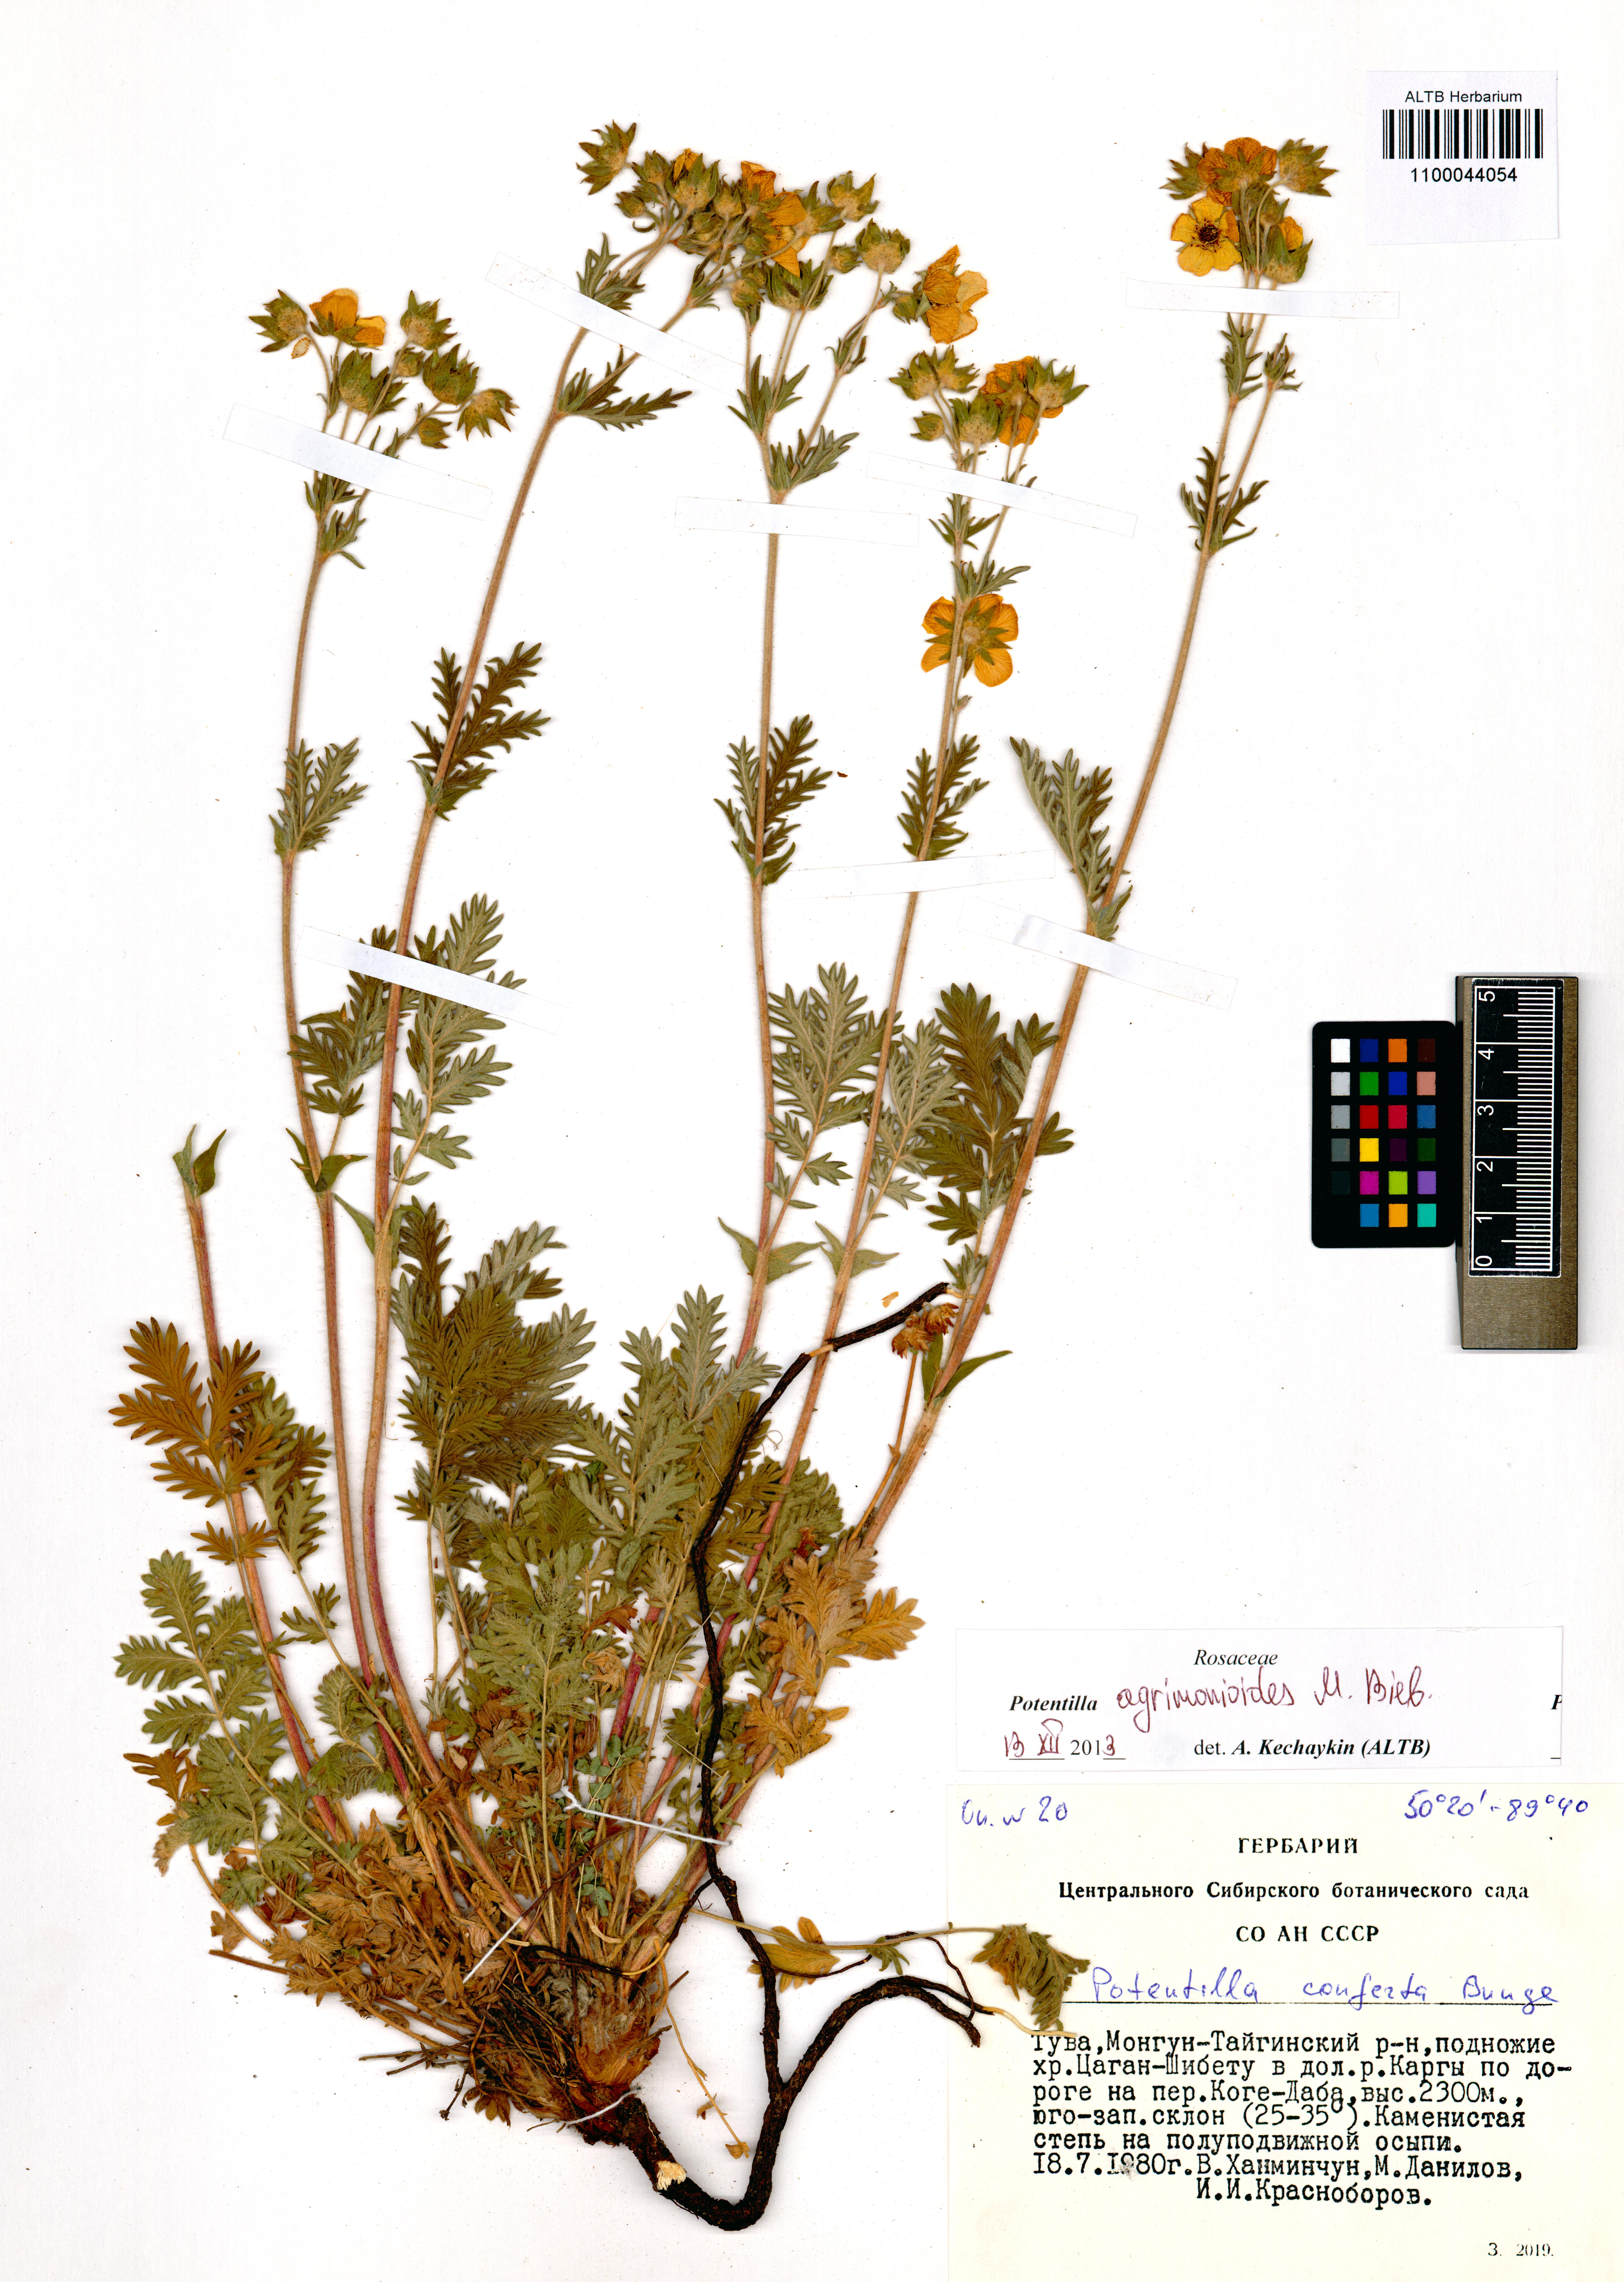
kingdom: Plantae
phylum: Tracheophyta
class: Magnoliopsida
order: Rosales
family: Rosaceae
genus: Potentilla
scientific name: Potentilla agrimonioides
